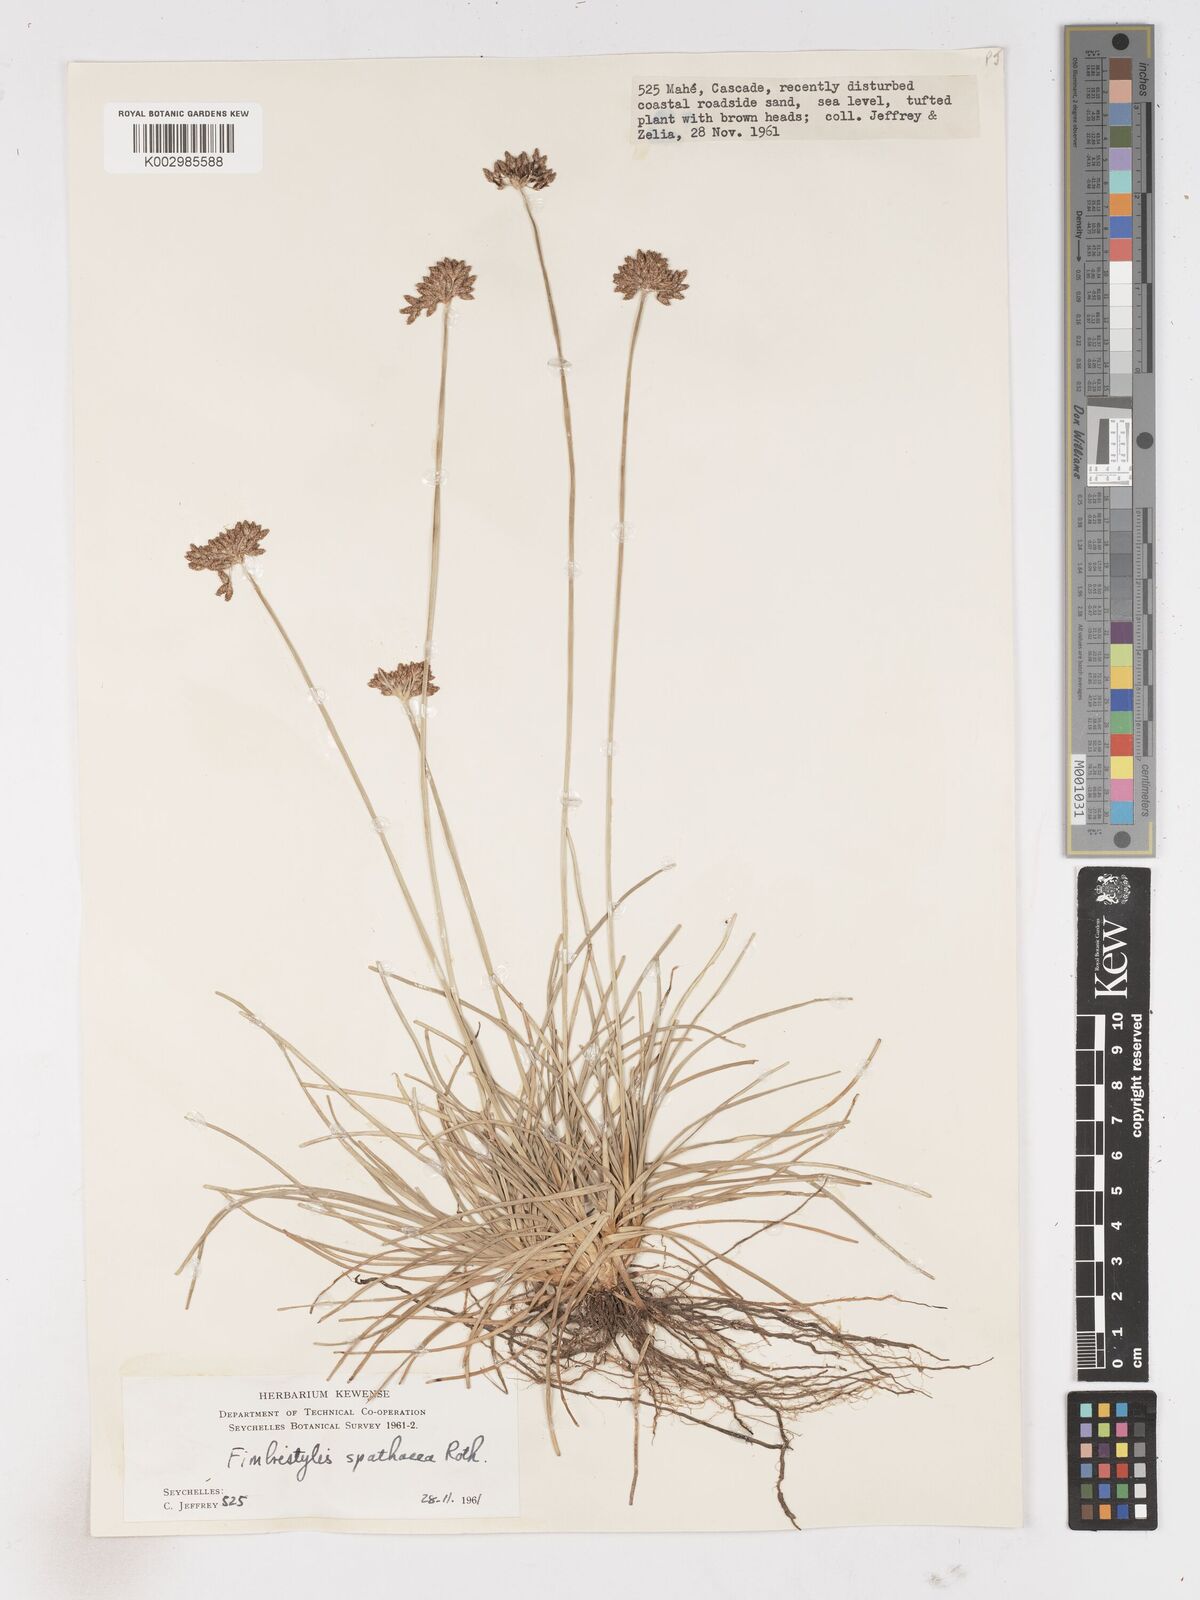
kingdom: Plantae
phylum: Tracheophyta
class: Liliopsida
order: Poales
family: Cyperaceae
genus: Fimbristylis
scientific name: Fimbristylis cymosa
